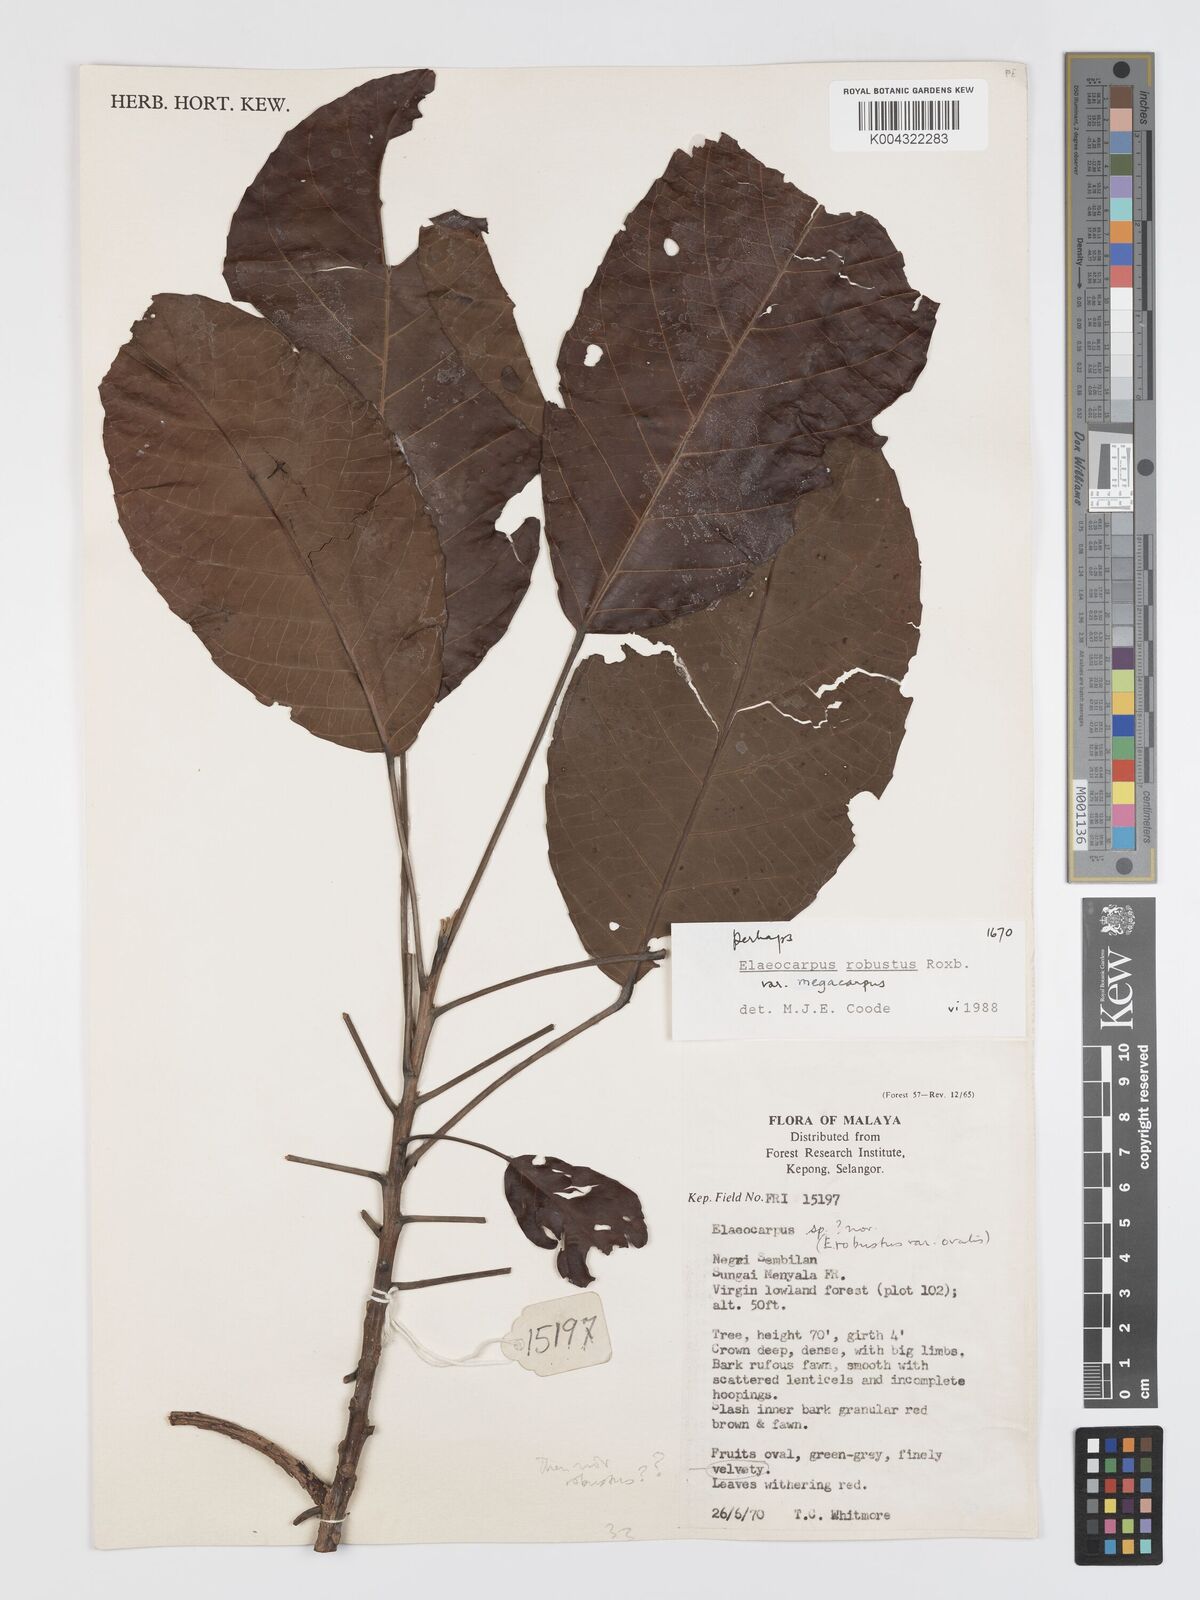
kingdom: Plantae
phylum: Tracheophyta
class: Magnoliopsida
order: Oxalidales
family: Elaeocarpaceae
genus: Elaeocarpus
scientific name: Elaeocarpus robustus
